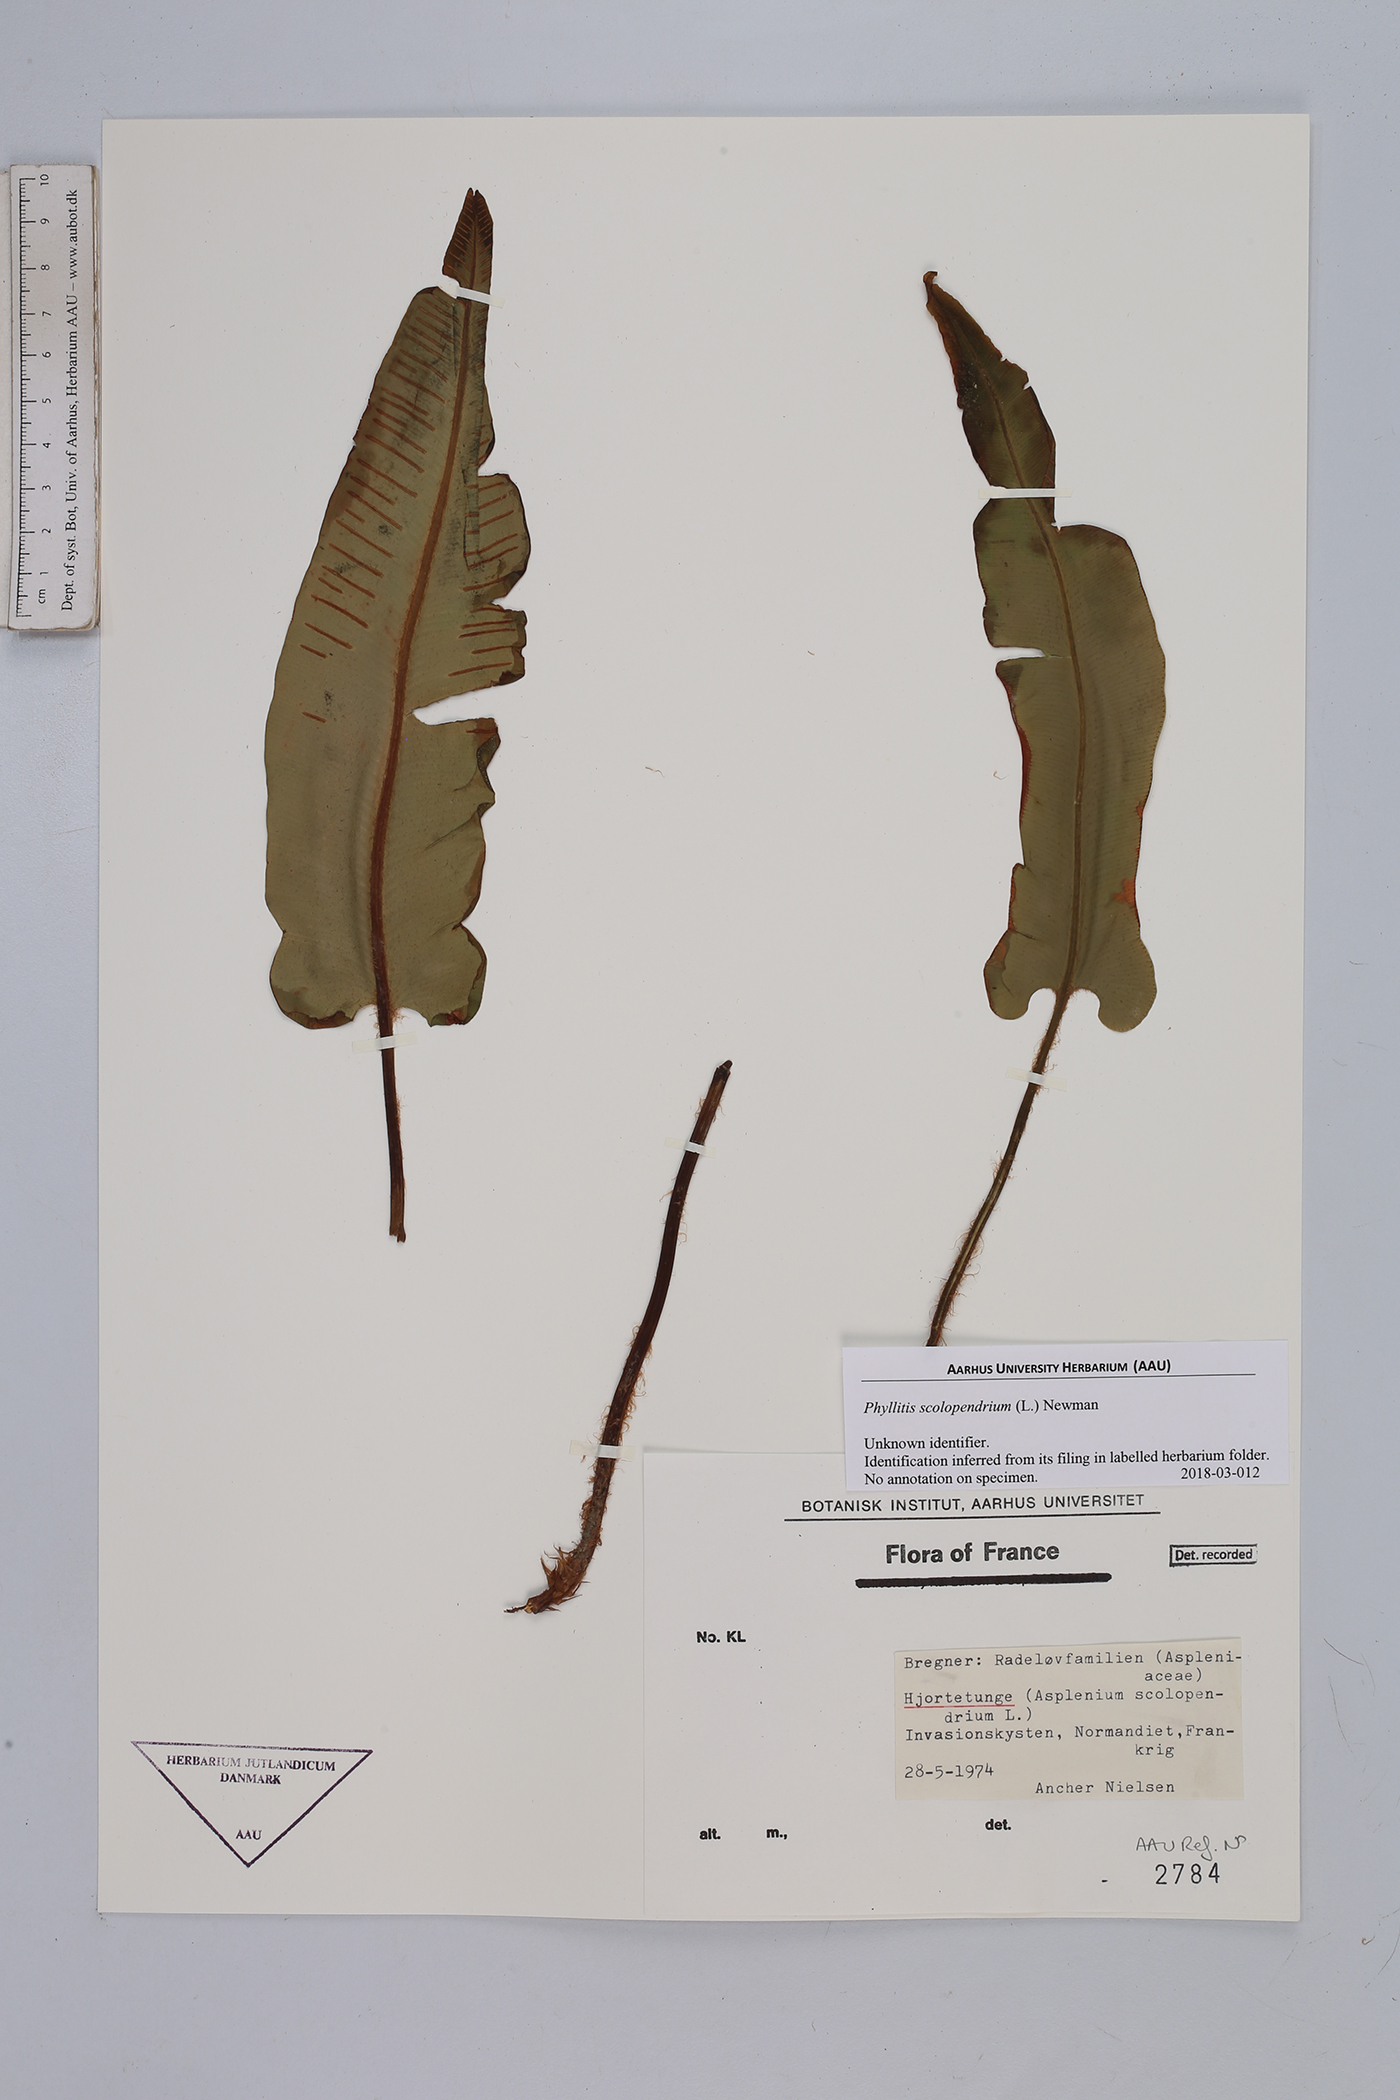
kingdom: Plantae
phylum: Tracheophyta
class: Polypodiopsida
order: Polypodiales
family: Aspleniaceae
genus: Asplenium
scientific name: Asplenium scolopendrium
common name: Hart's-tongue fern
